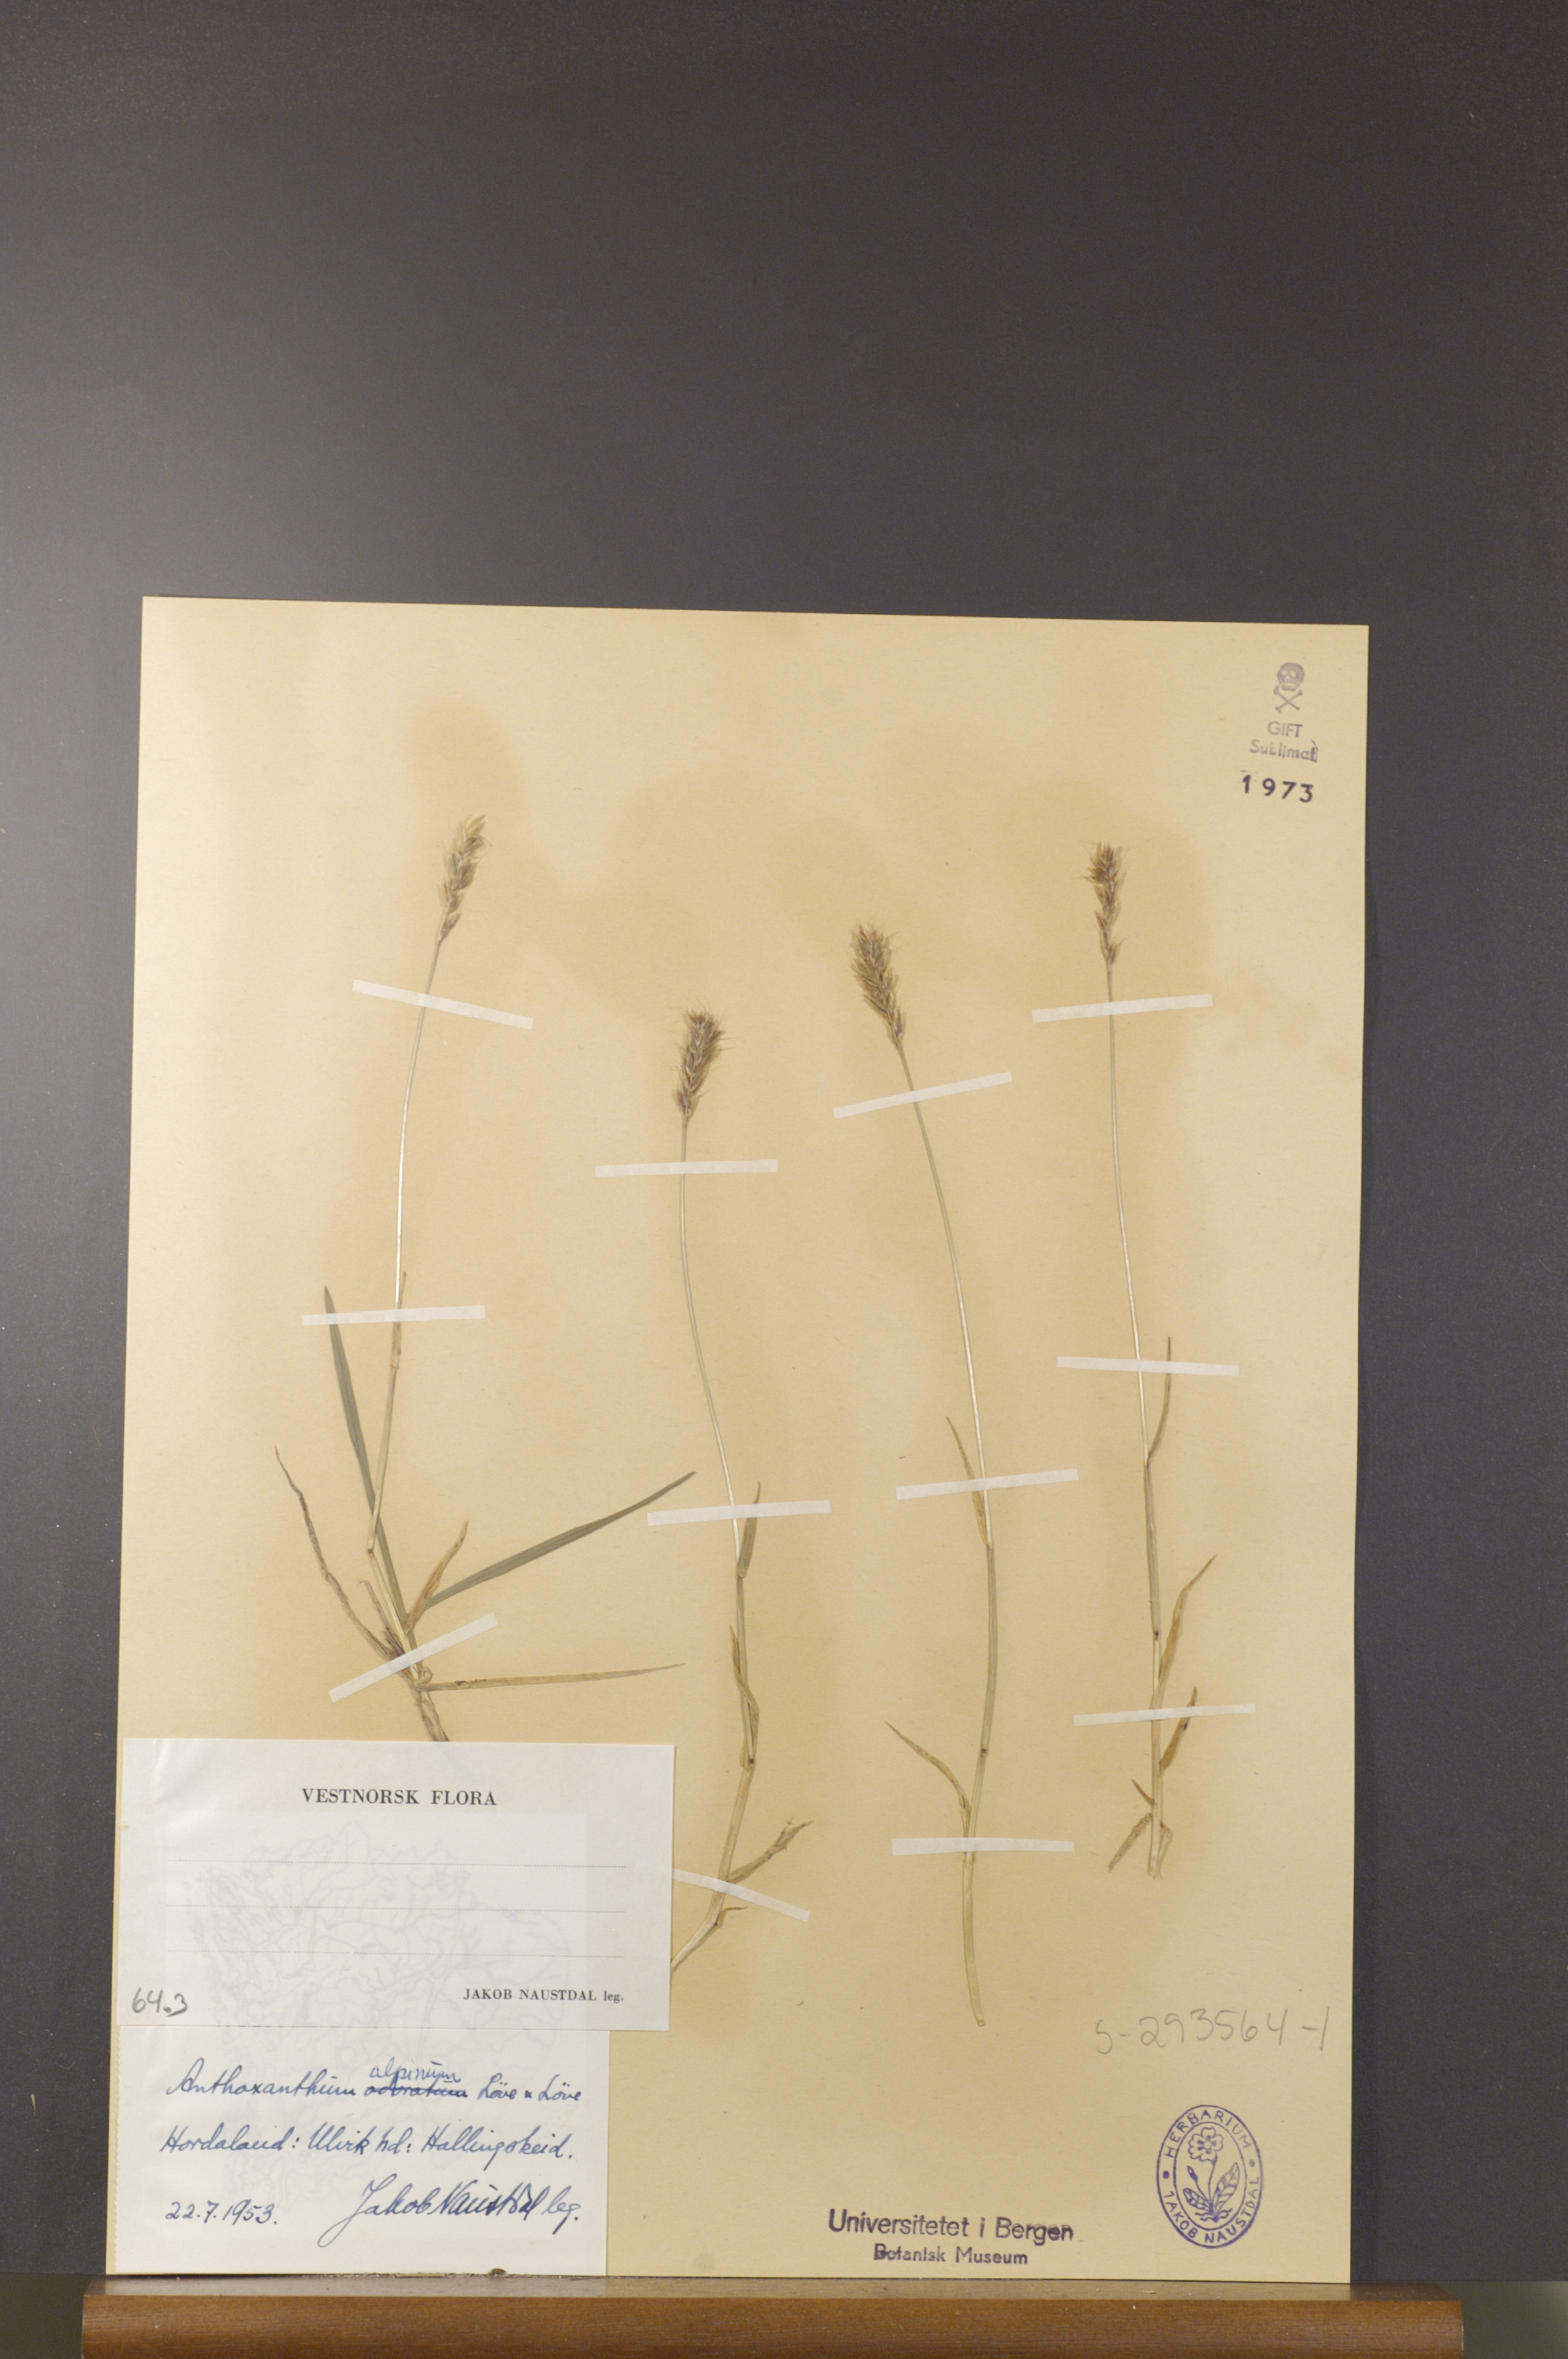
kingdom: Plantae
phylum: Tracheophyta
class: Liliopsida
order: Poales
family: Poaceae
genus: Anthoxanthum
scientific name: Anthoxanthum nipponicum
